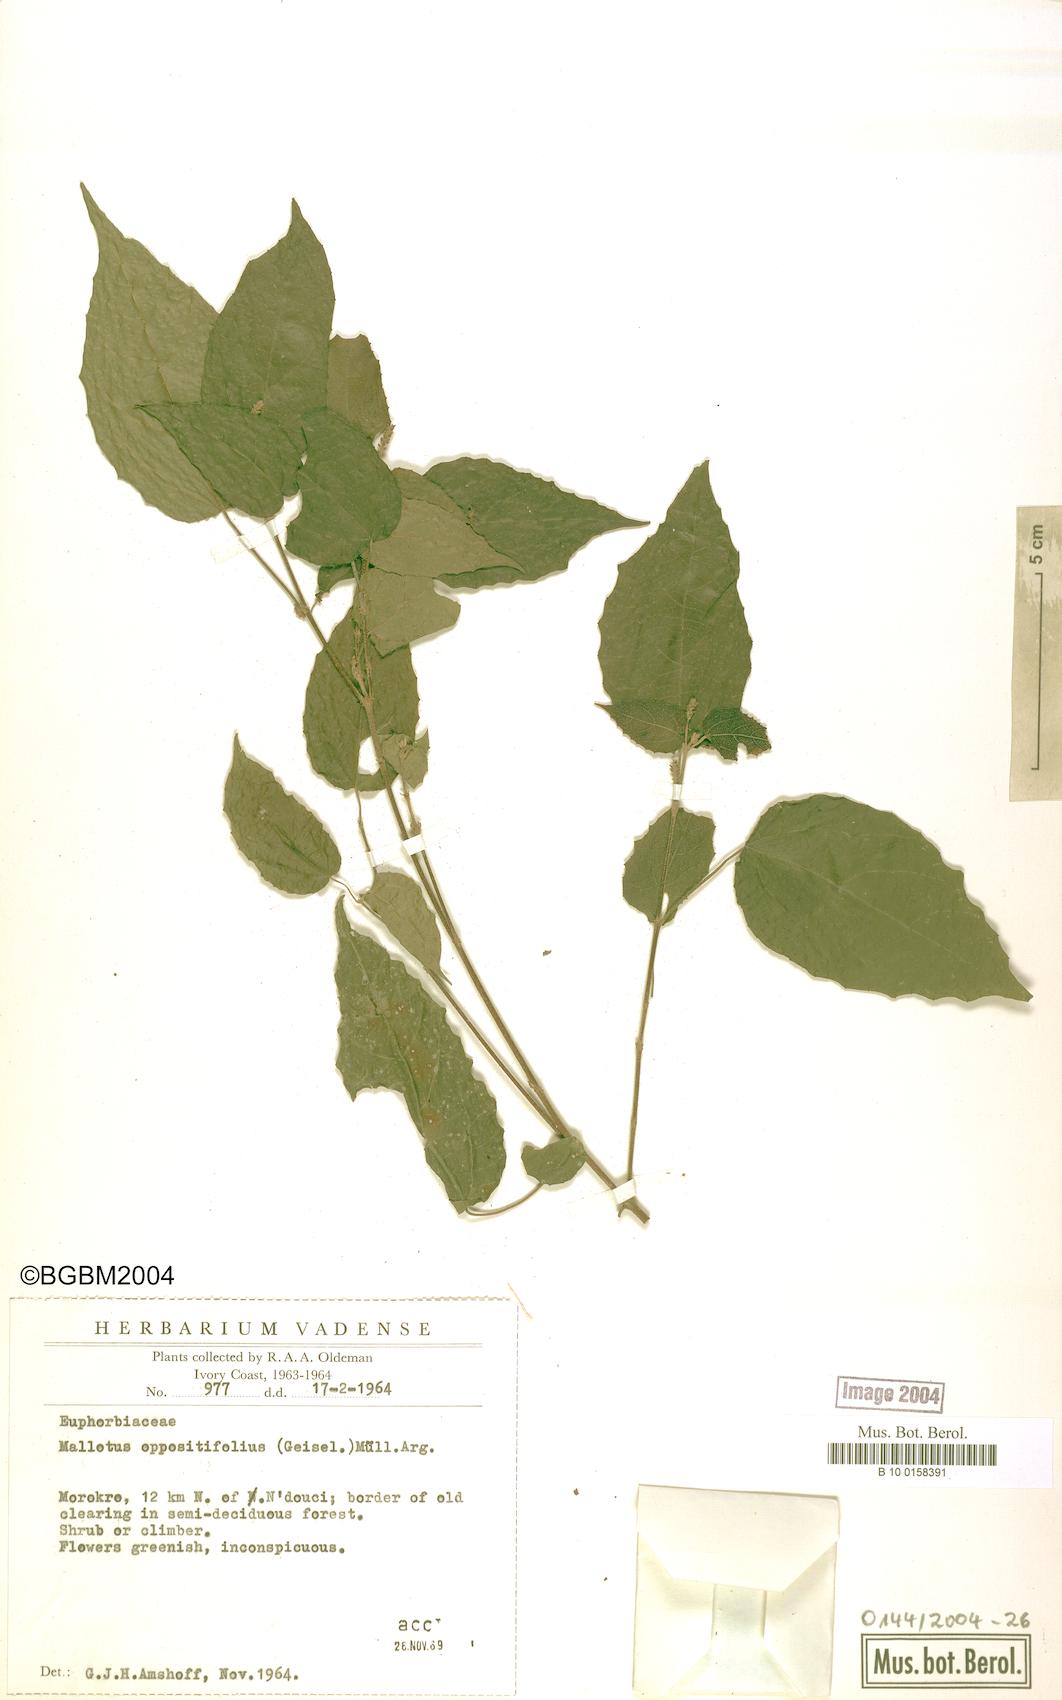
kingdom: Plantae
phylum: Tracheophyta
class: Magnoliopsida
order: Malpighiales
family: Euphorbiaceae
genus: Mallotus
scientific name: Mallotus oppositifolius
